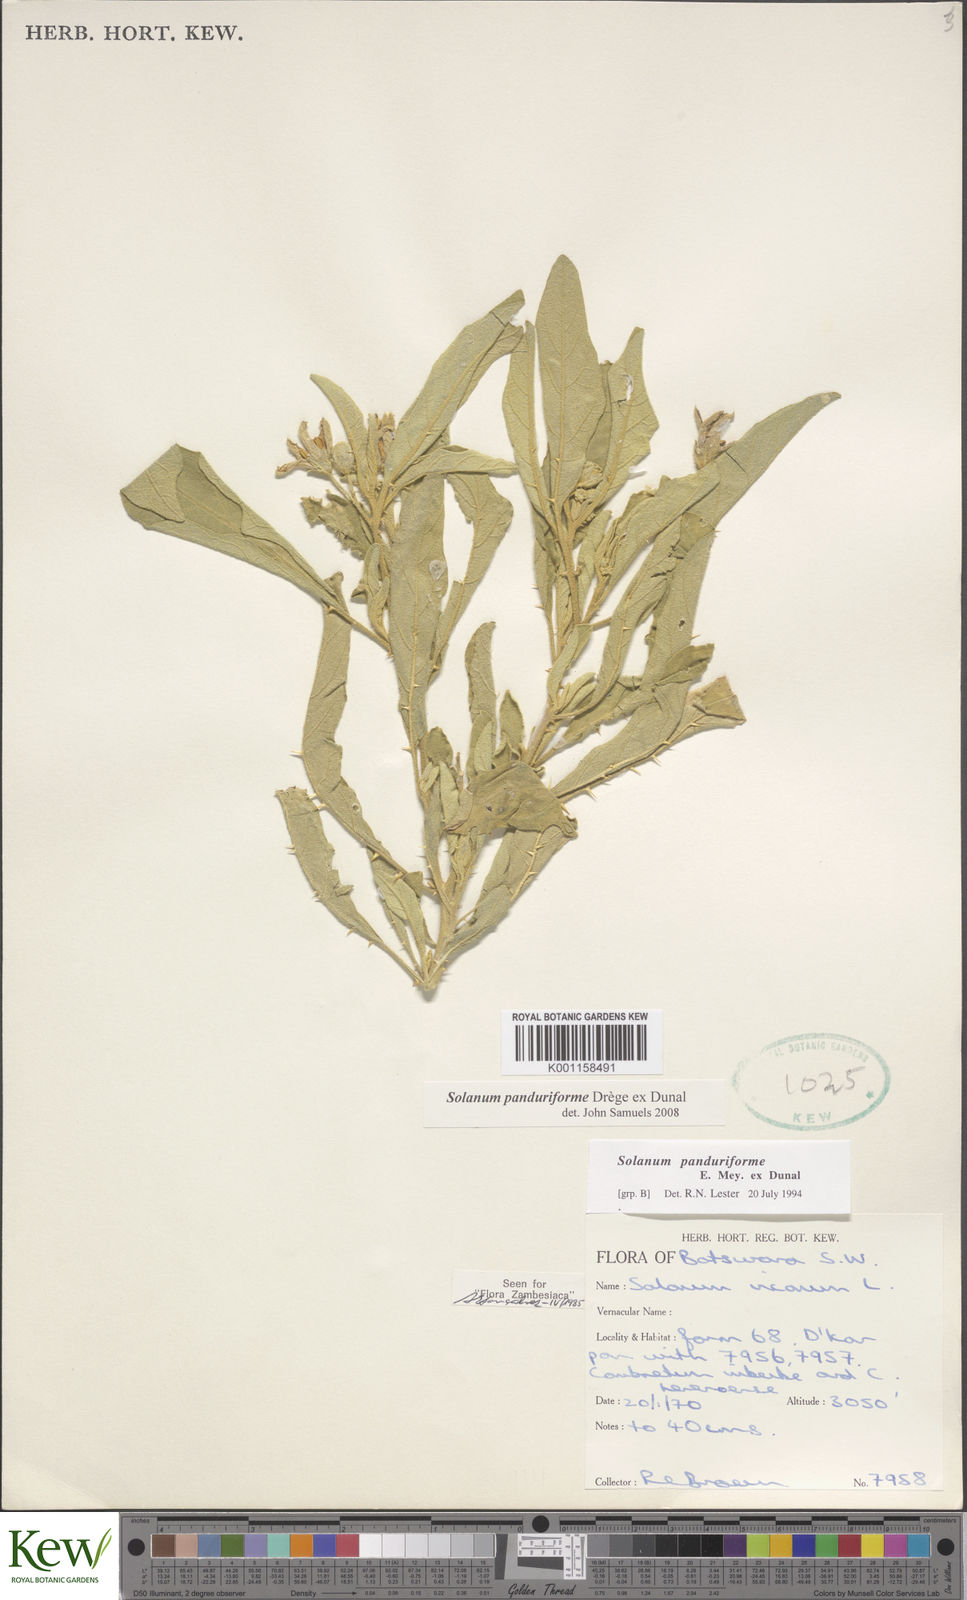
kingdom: Plantae
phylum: Tracheophyta
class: Magnoliopsida
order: Solanales
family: Solanaceae
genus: Solanum
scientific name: Solanum campylacanthum
